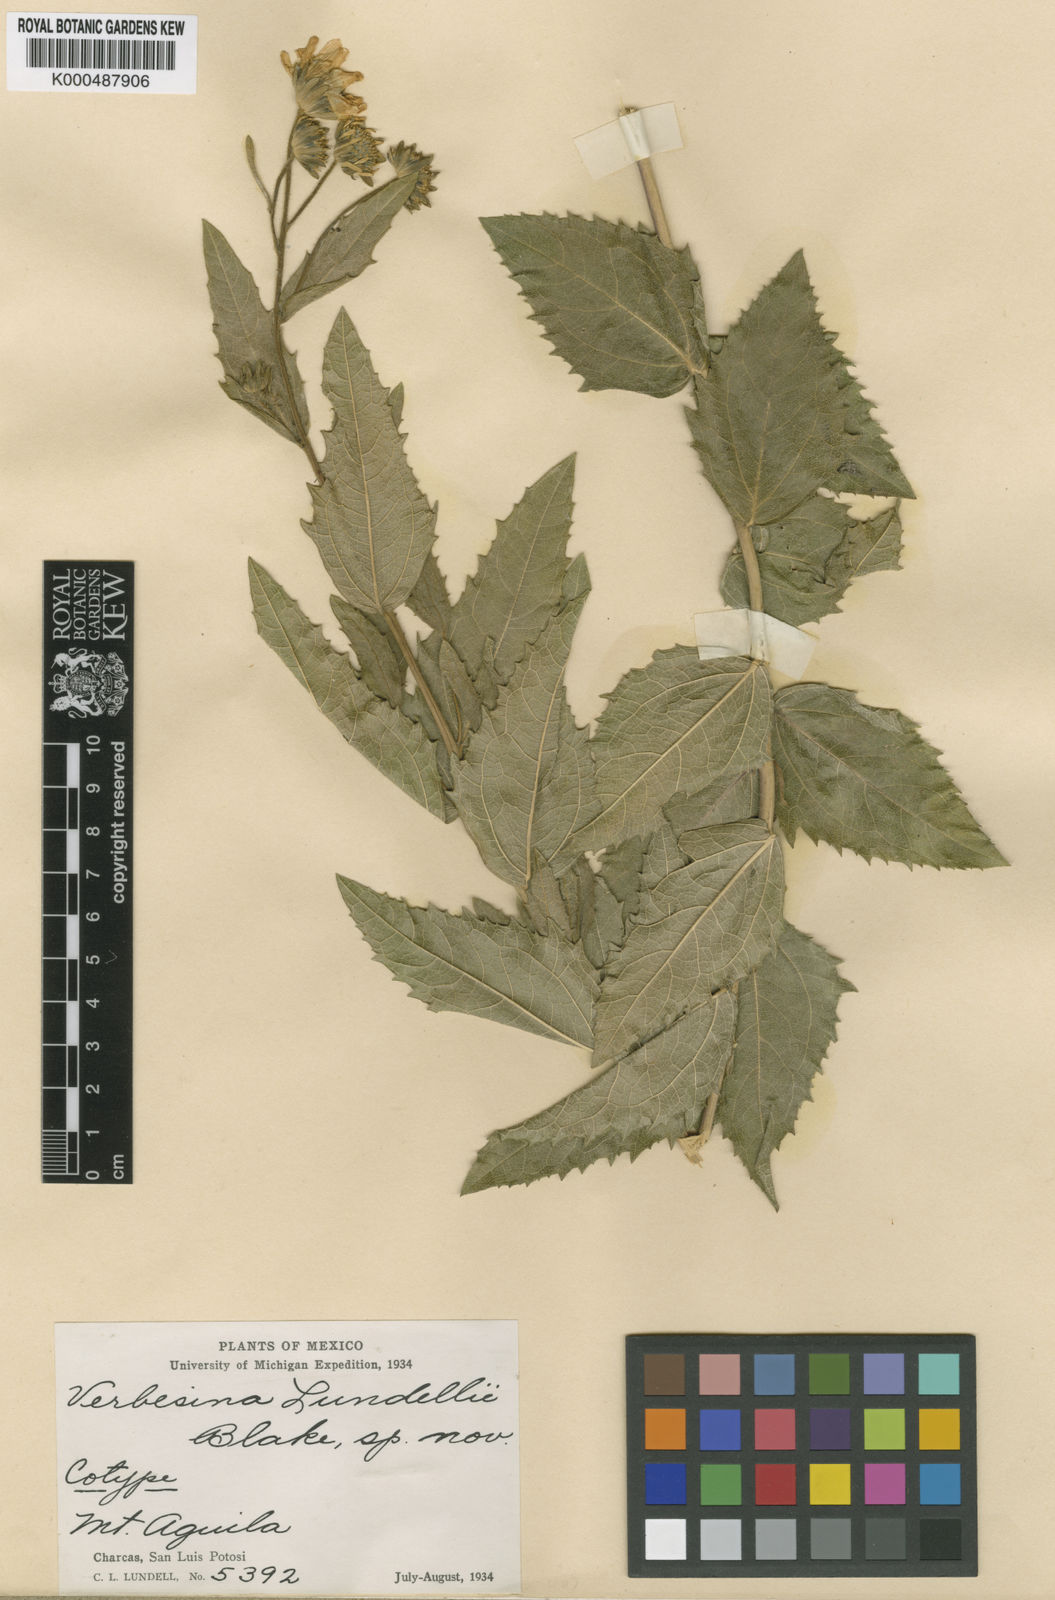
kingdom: Plantae
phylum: Tracheophyta
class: Magnoliopsida
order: Asterales
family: Asteraceae
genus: Verbesina
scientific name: Verbesina lundellii
